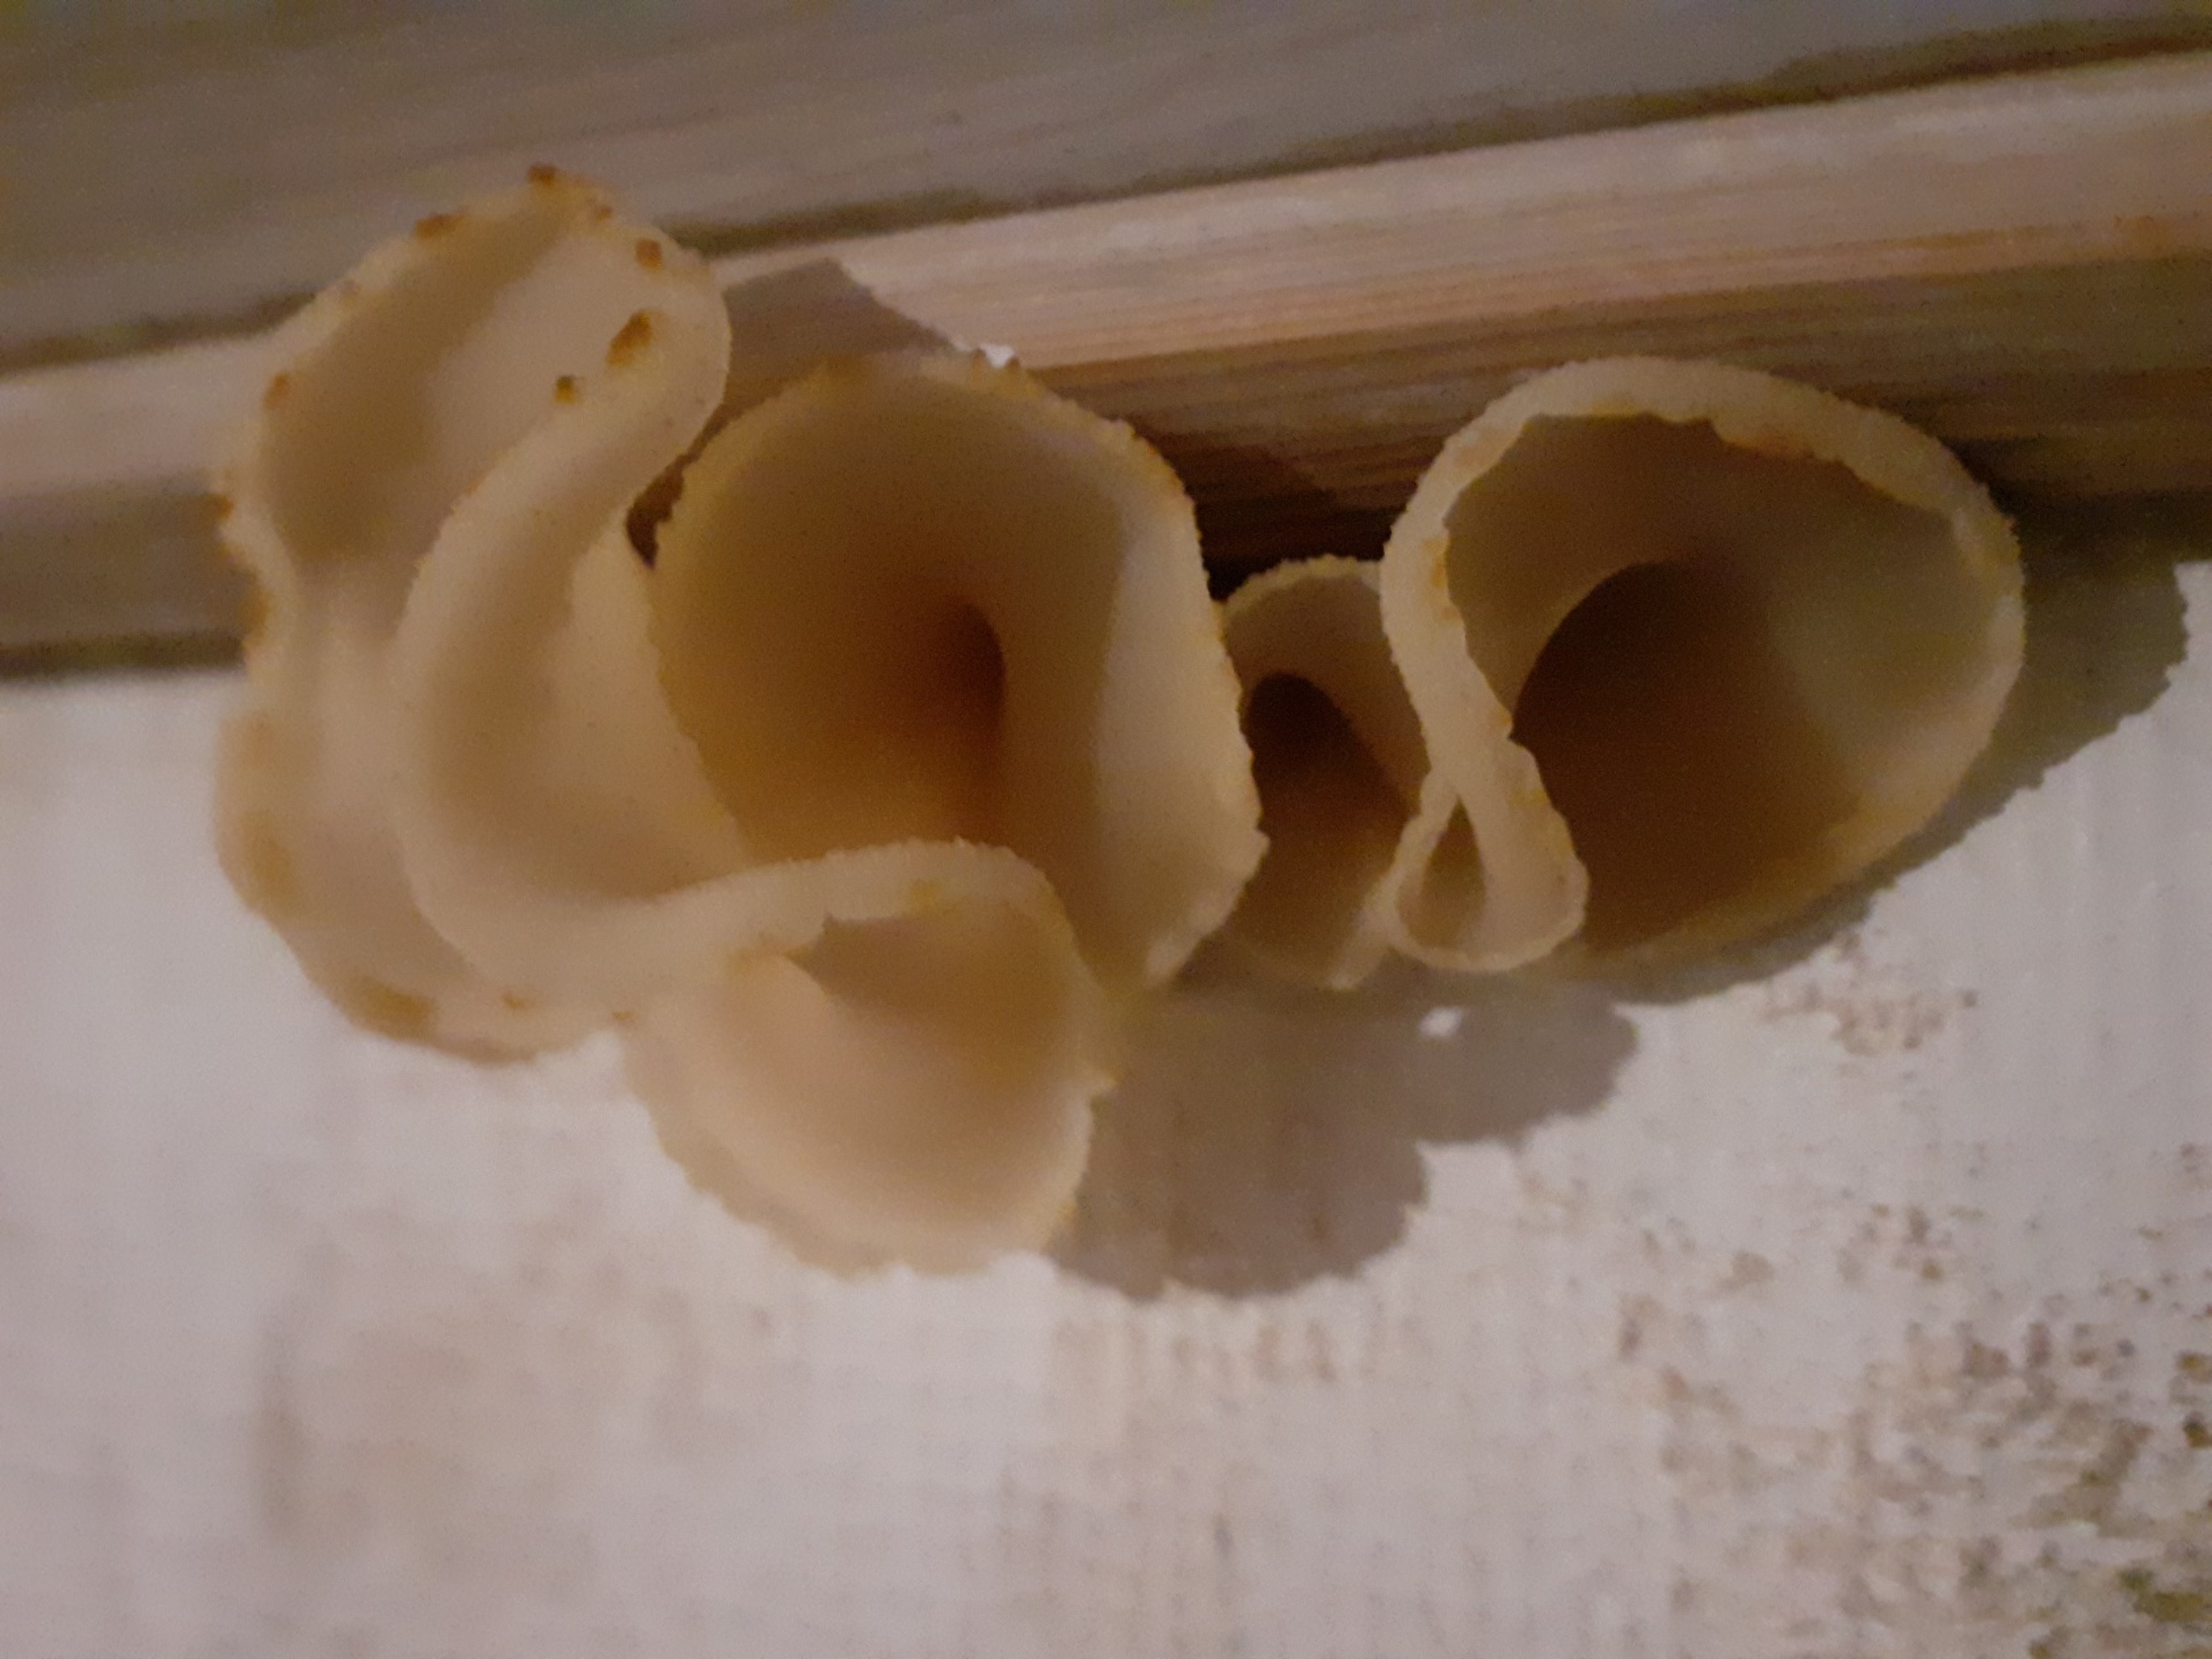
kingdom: Fungi
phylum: Ascomycota
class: Pezizomycetes
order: Pezizales
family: Pezizaceae
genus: Peziza
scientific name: Peziza
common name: Bægersvamp
